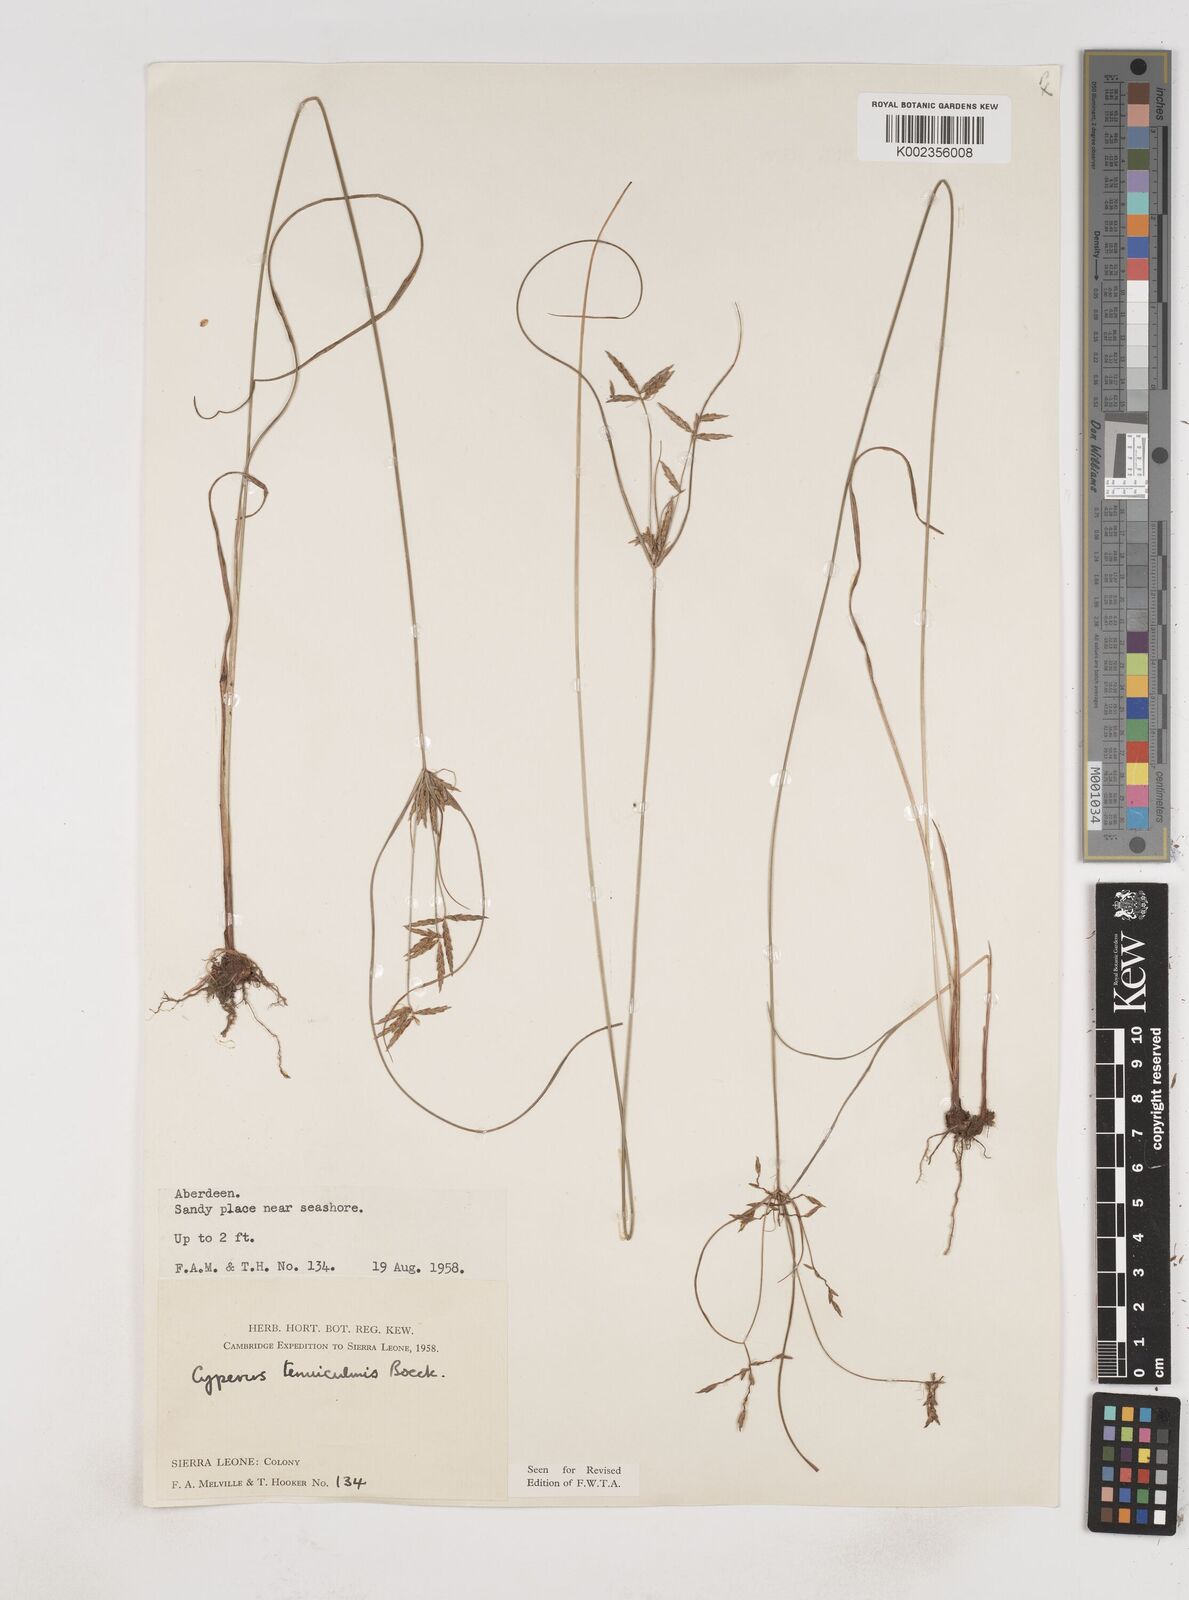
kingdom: Plantae
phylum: Tracheophyta
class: Liliopsida
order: Poales
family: Cyperaceae
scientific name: Cyperaceae
